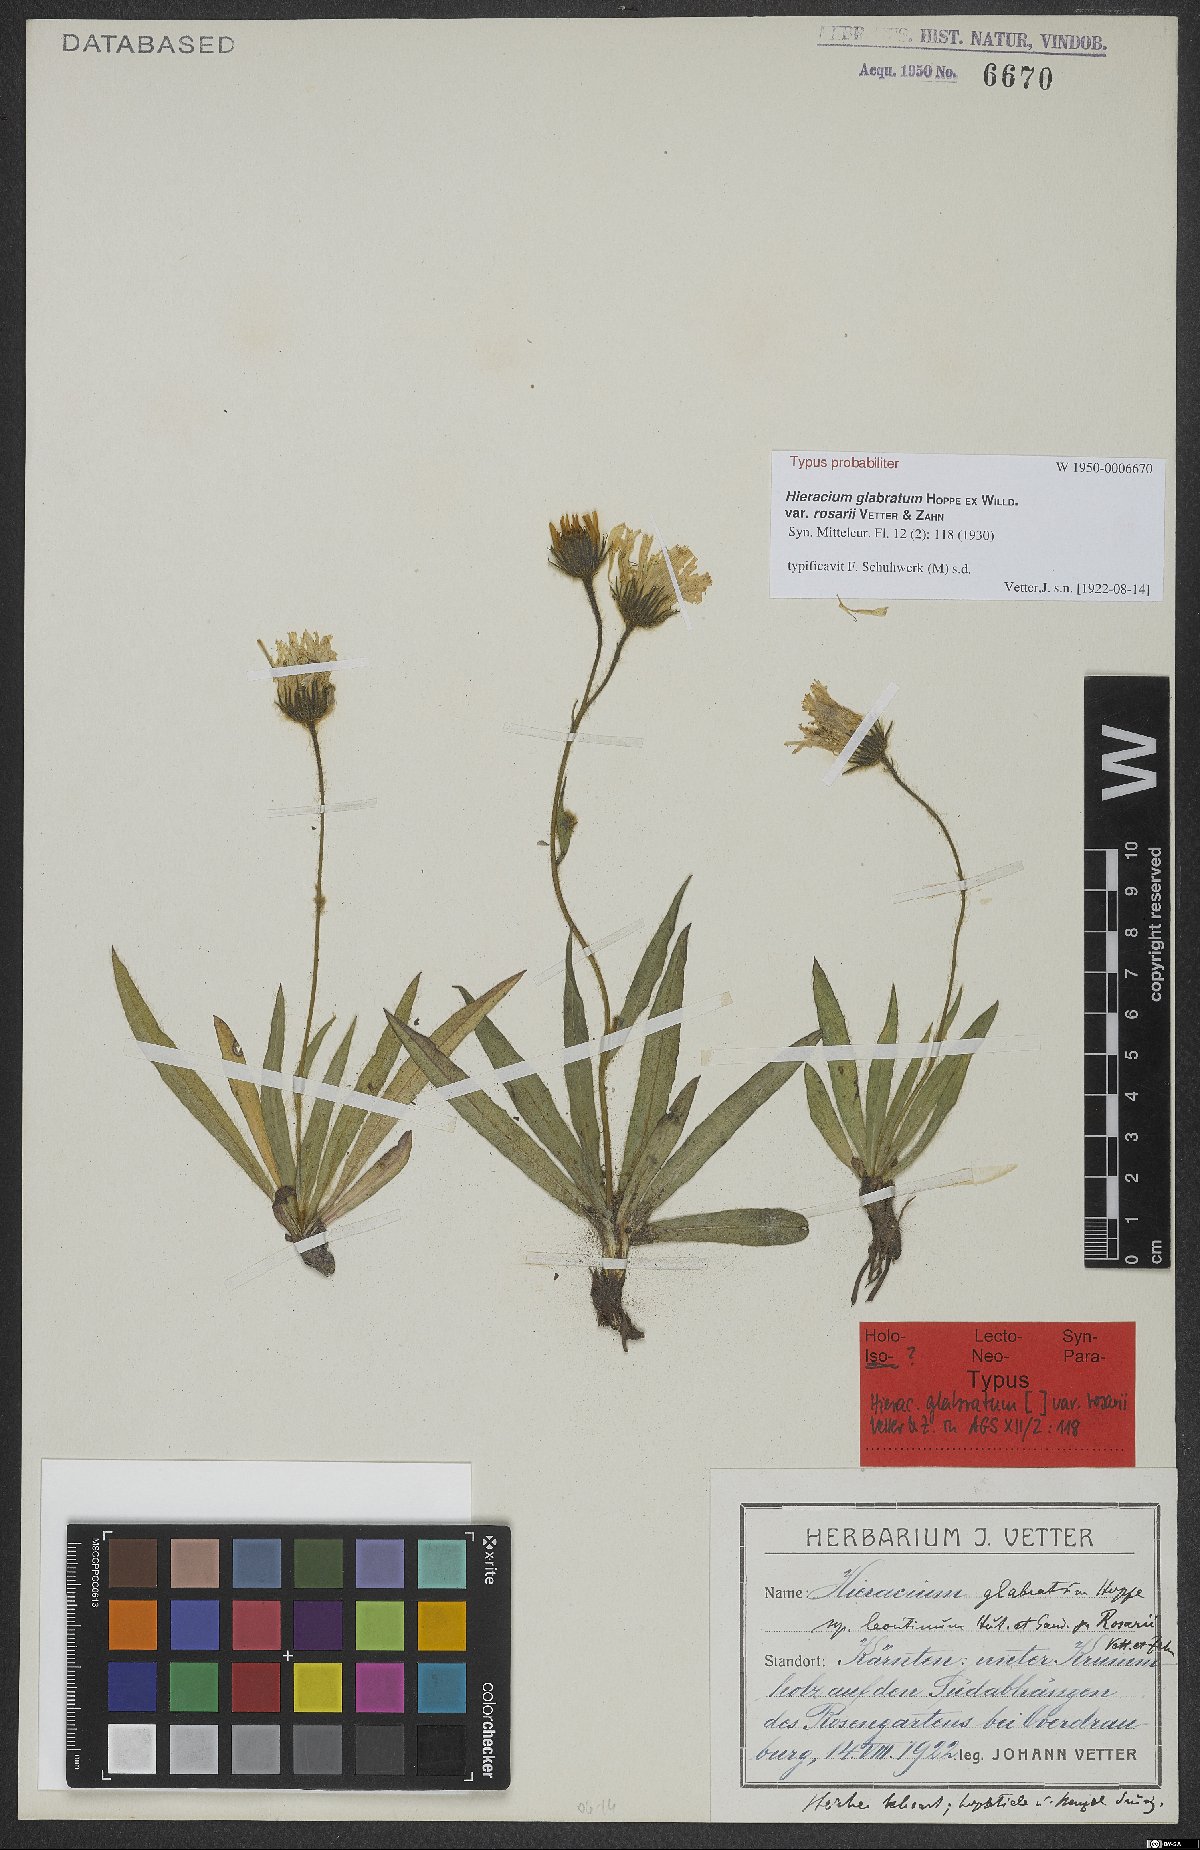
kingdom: Plantae
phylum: Tracheophyta
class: Magnoliopsida
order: Asterales
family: Asteraceae
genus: Hieracium
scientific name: Hieracium glabratum
